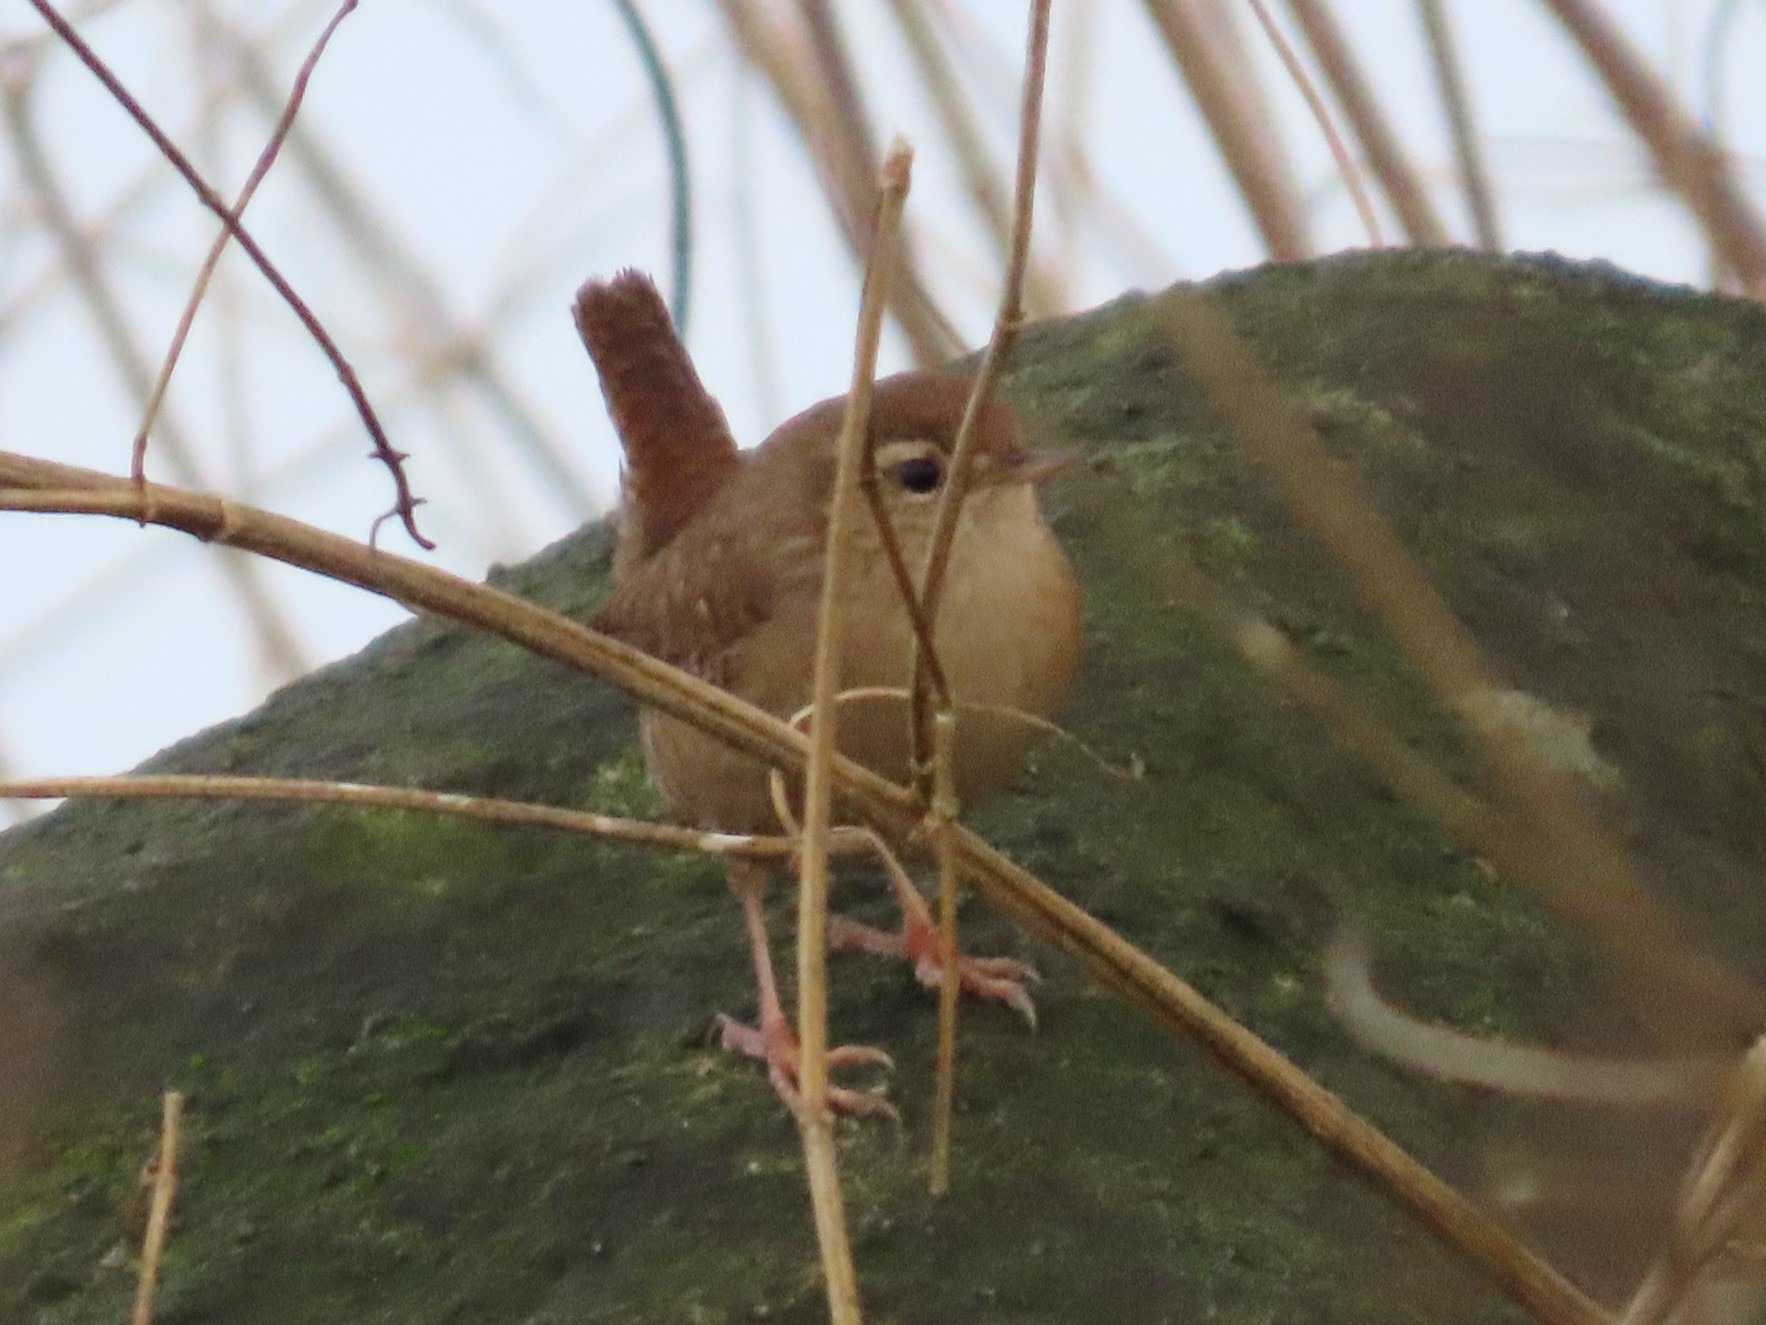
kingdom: Animalia
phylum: Chordata
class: Aves
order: Passeriformes
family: Troglodytidae
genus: Troglodytes
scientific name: Troglodytes troglodytes
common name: Gærdesmutte
